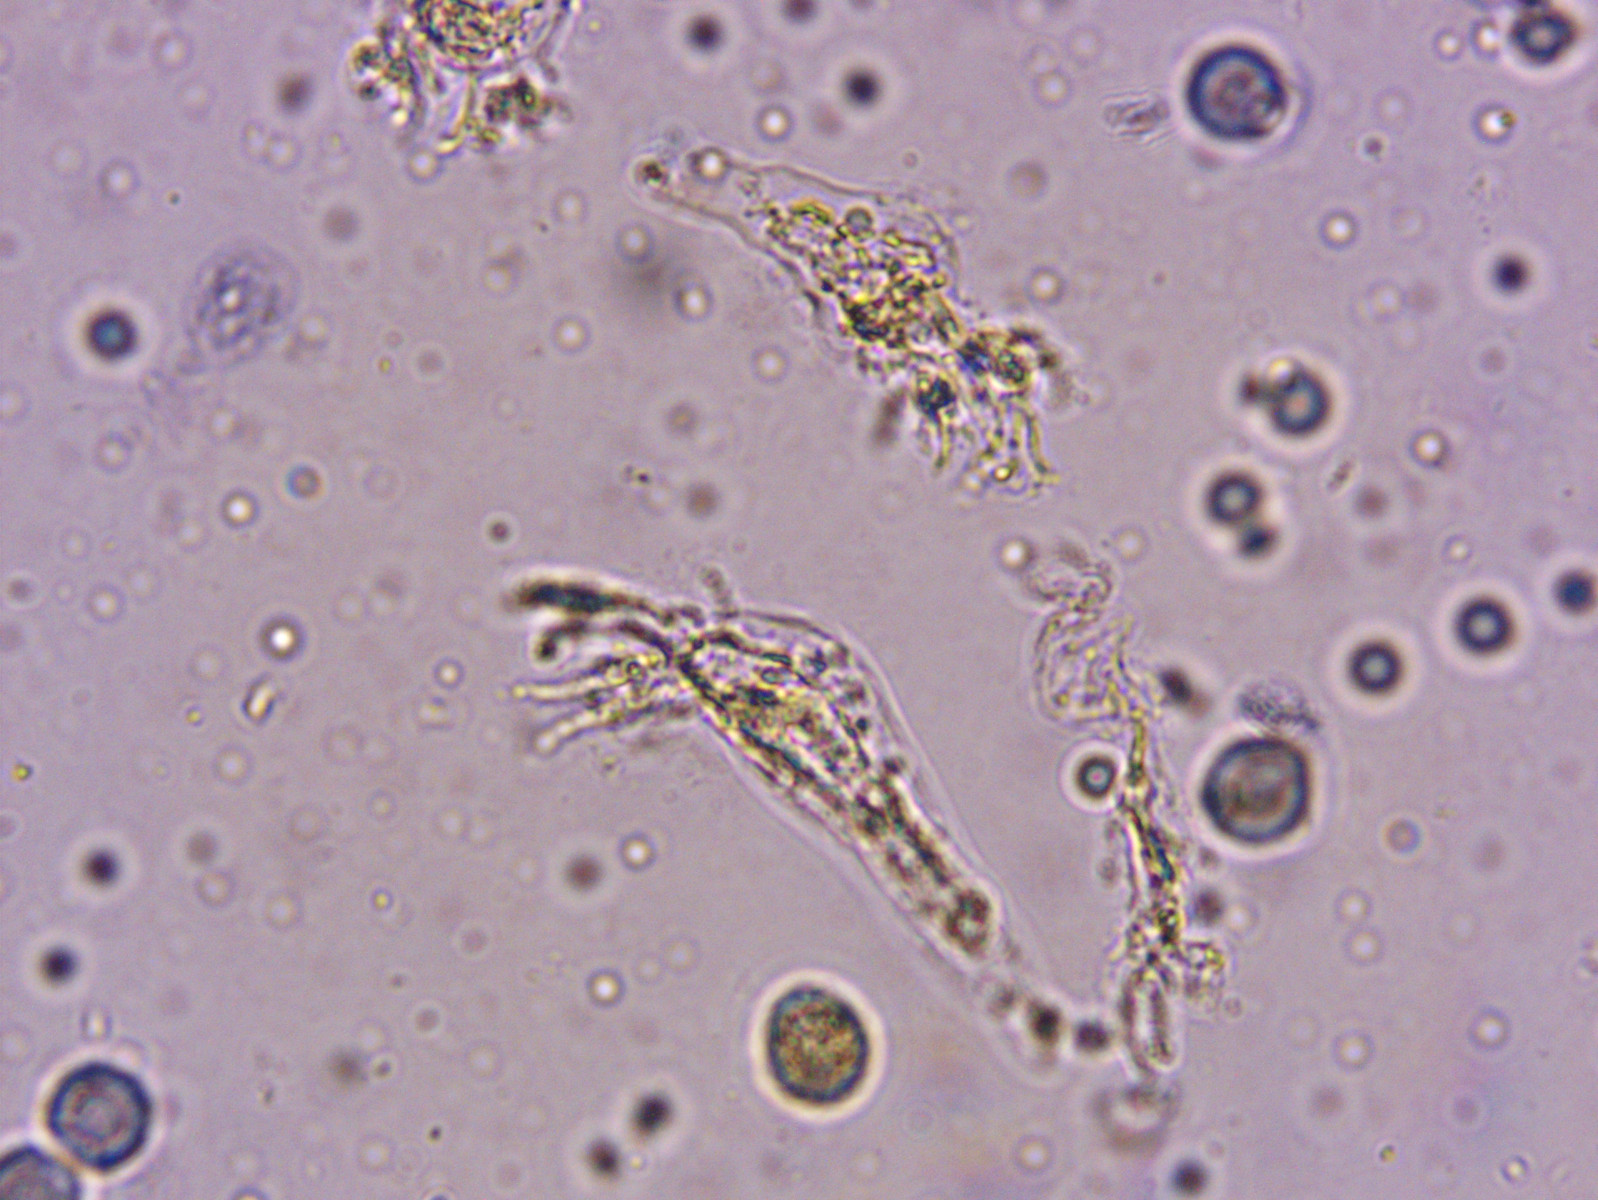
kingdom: Fungi
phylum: Basidiomycota
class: Agaricomycetes
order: Agaricales
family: Mycenaceae
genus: Mycena
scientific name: Mycena galericulata
